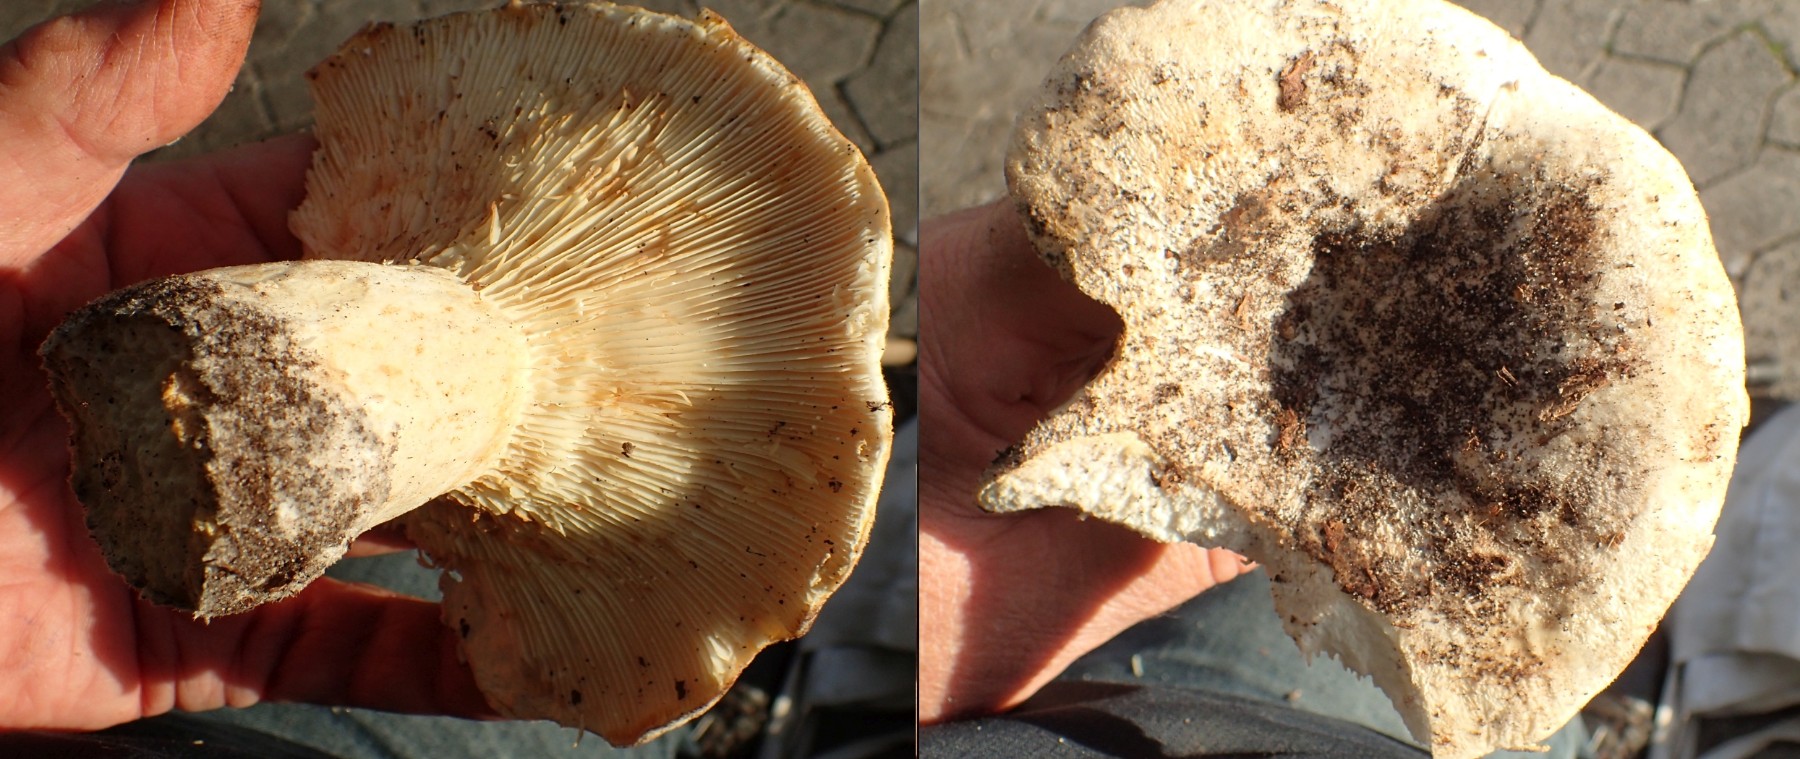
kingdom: Fungi
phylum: Basidiomycota
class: Agaricomycetes
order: Russulales
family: Russulaceae
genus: Lactifluus
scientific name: Lactifluus
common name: mælkehat
